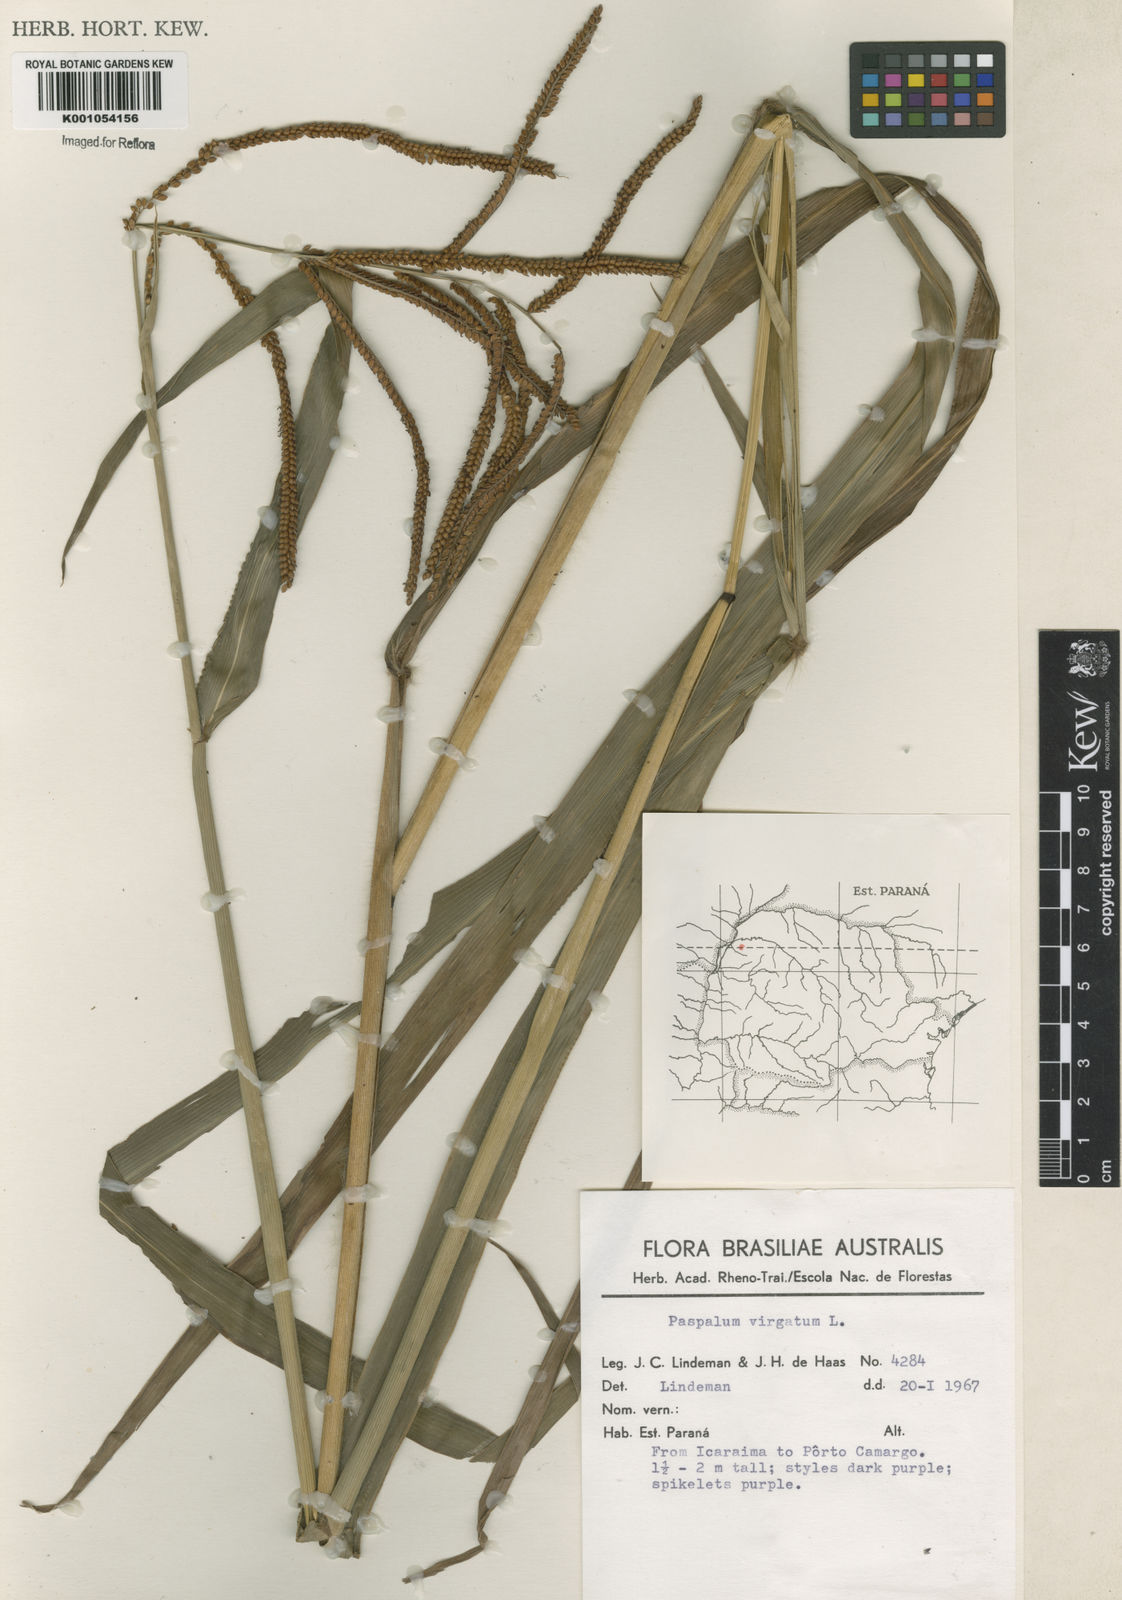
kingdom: Plantae
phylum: Tracheophyta
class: Liliopsida
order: Poales
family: Poaceae
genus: Paspalum
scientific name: Paspalum conspersum
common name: Scattered paspalum
